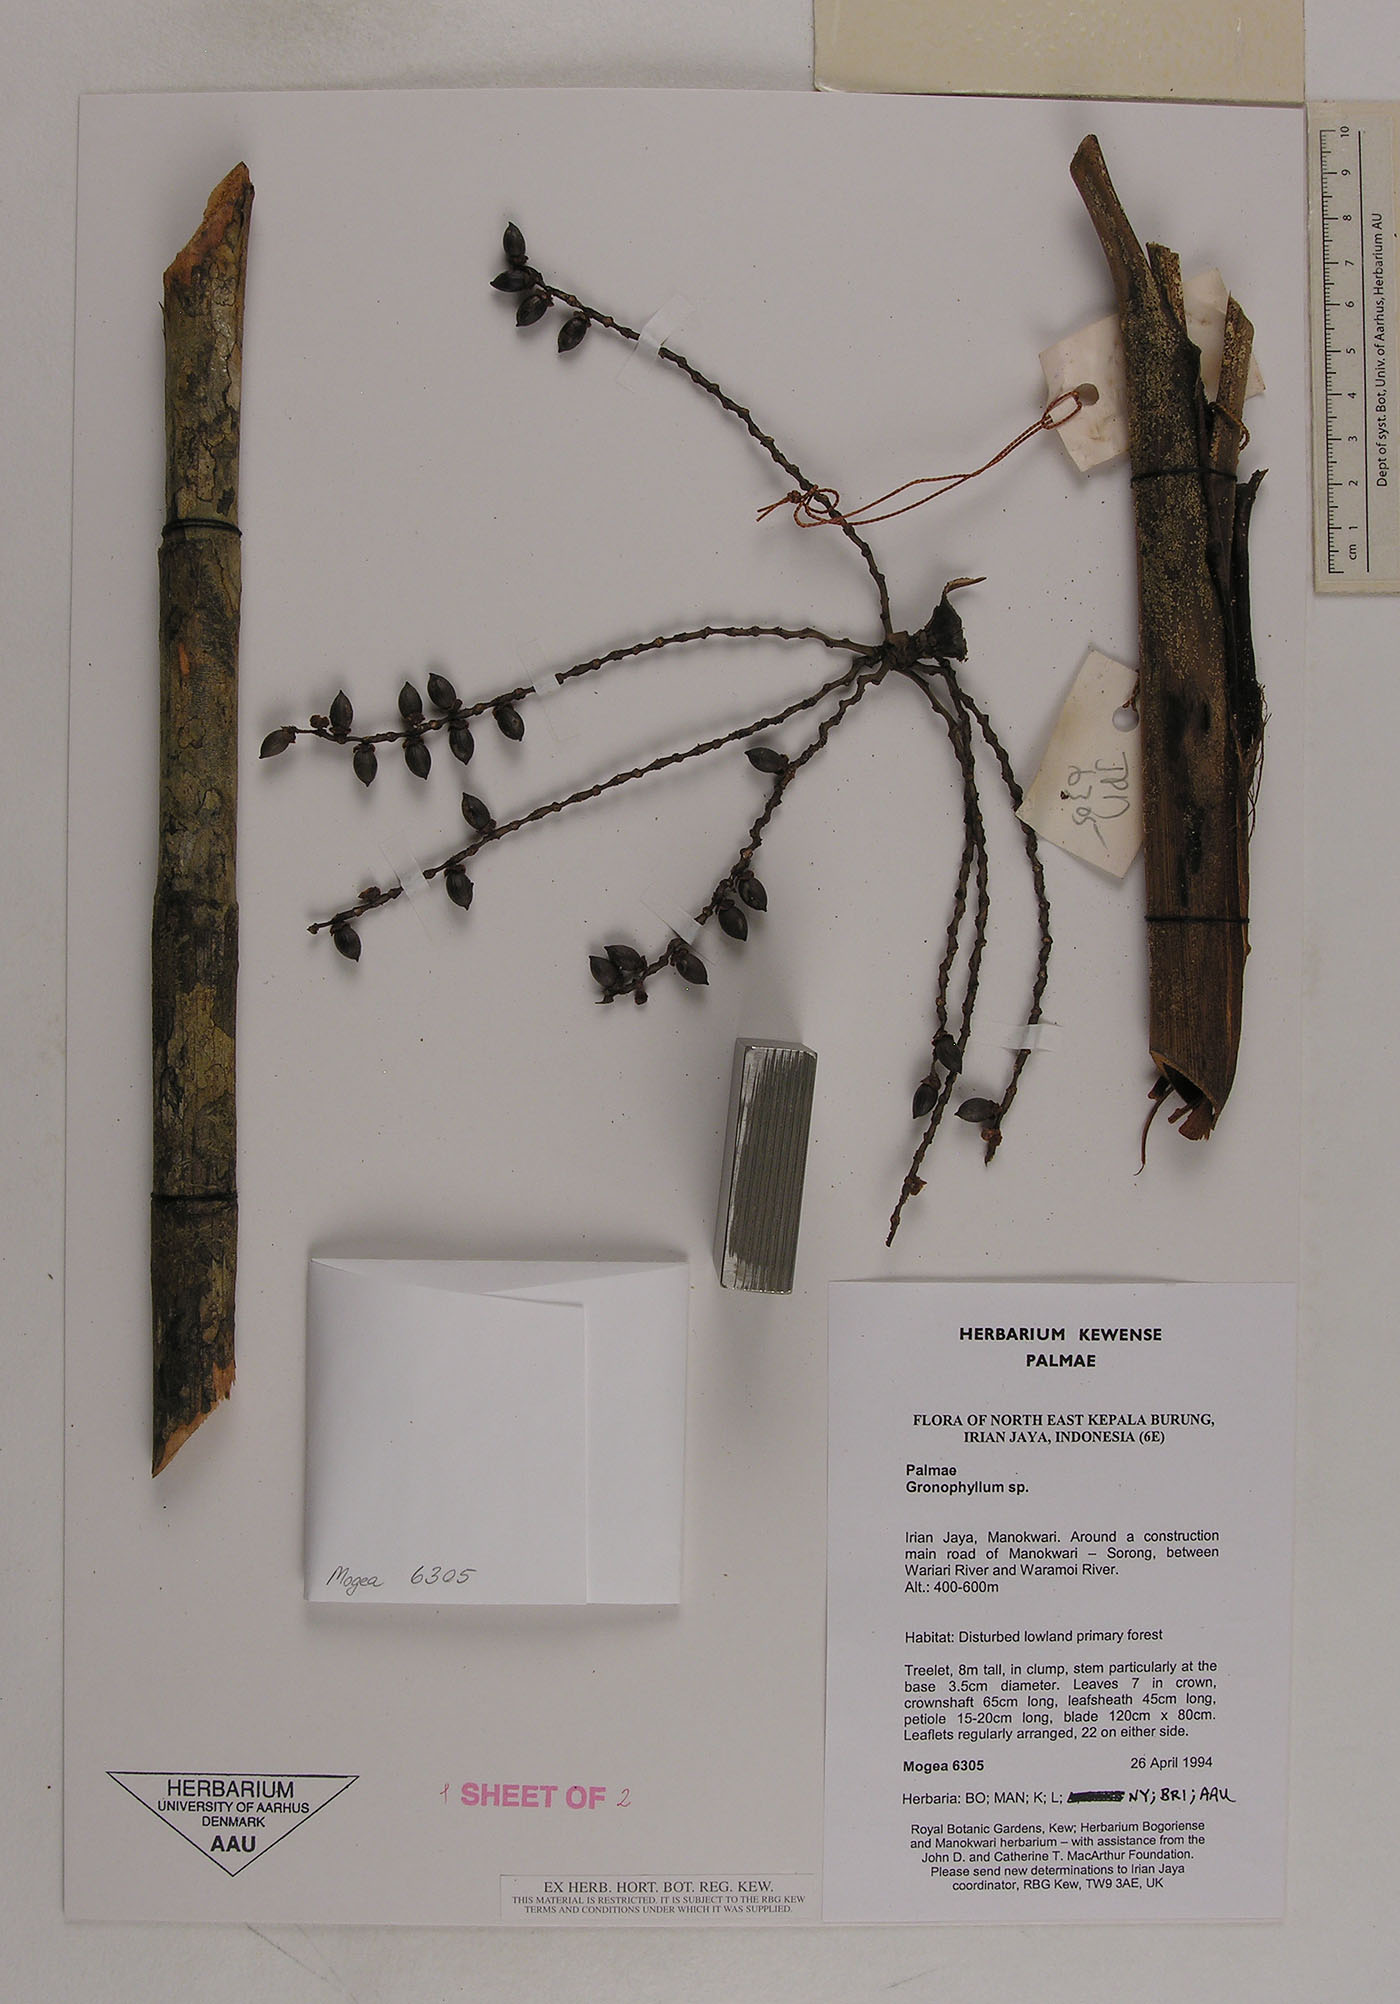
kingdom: Plantae
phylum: Tracheophyta
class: Liliopsida
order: Arecales
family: Arecaceae
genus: Hydriastele
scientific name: Hydriastele
